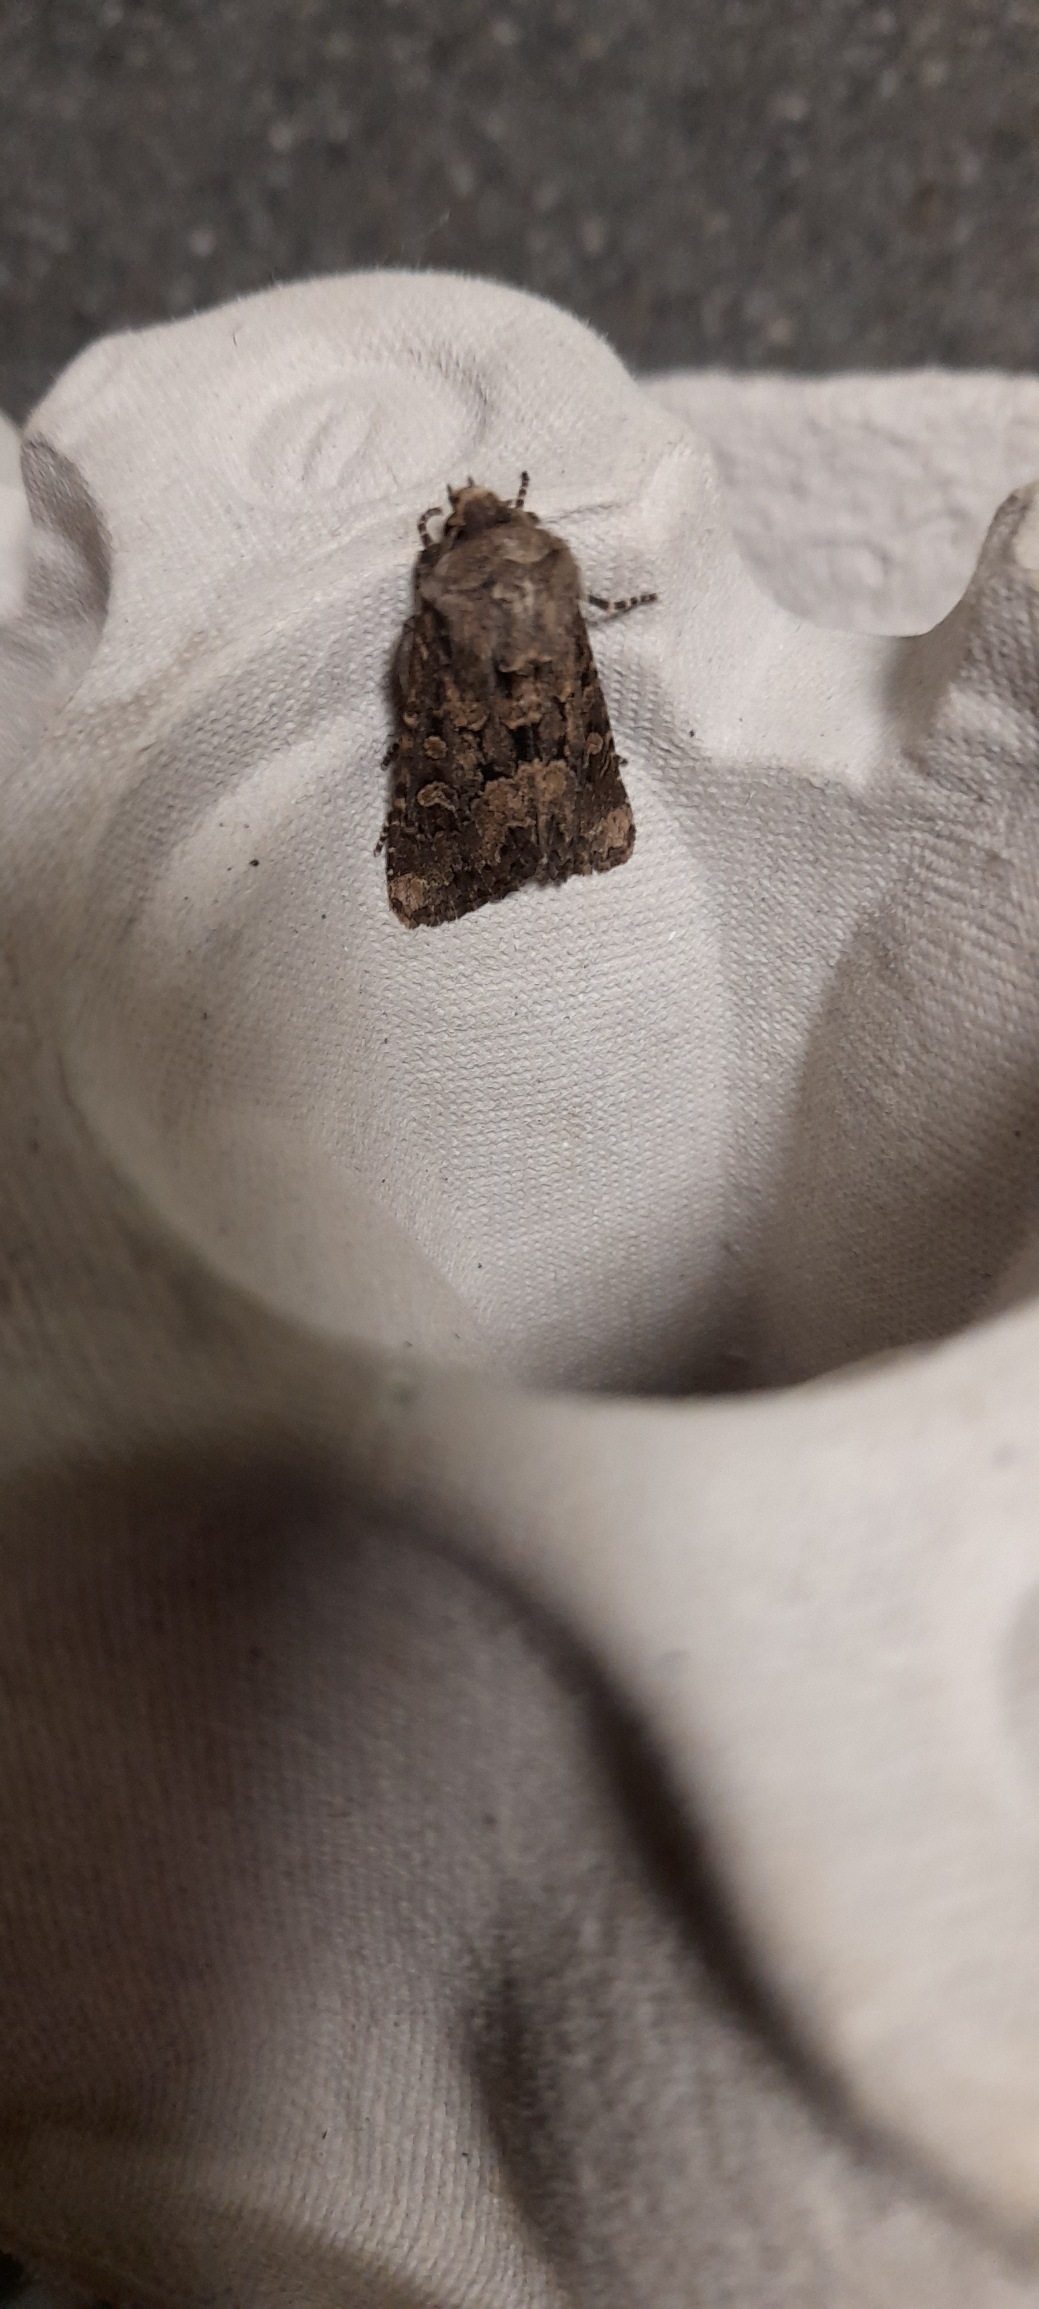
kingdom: Animalia
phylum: Arthropoda
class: Insecta
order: Lepidoptera
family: Noctuidae
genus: Luperina
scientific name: Luperina testacea
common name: Frøgræsugle
